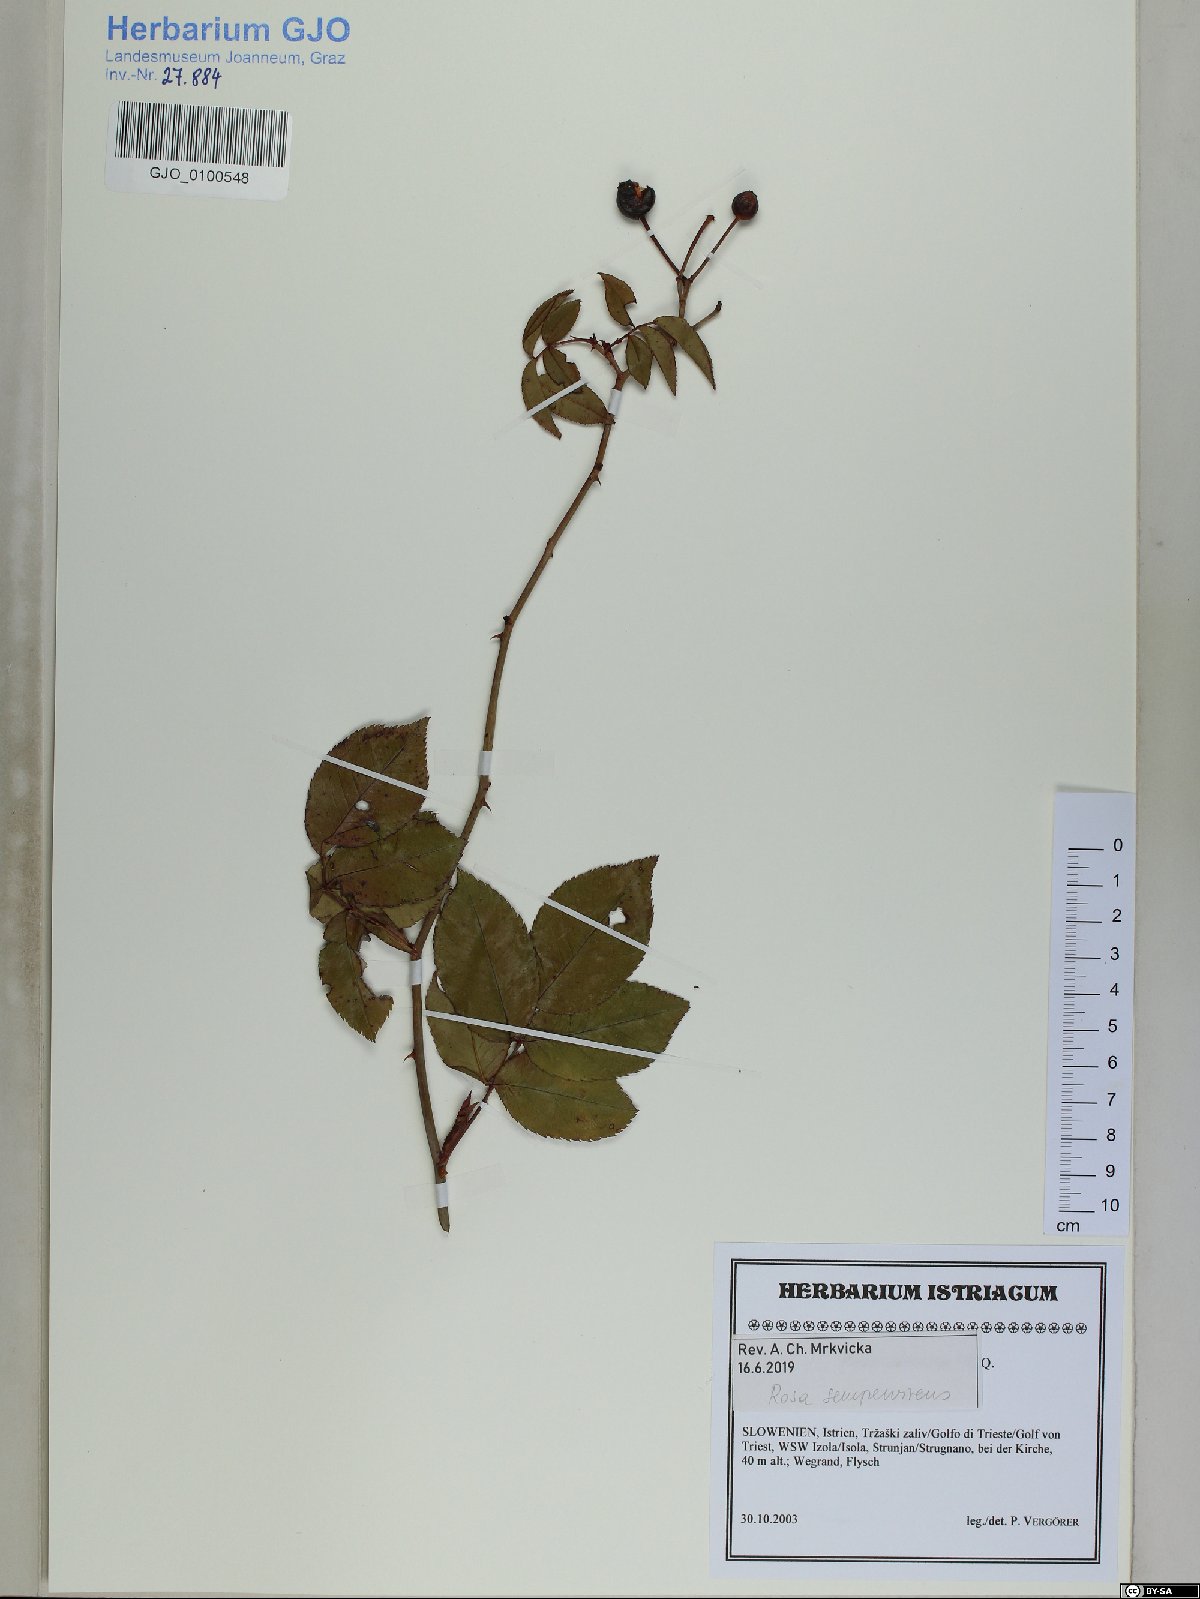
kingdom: Plantae
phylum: Tracheophyta
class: Magnoliopsida
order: Rosales
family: Rosaceae
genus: Rosa
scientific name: Rosa sempervirens
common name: Evergreen rose
